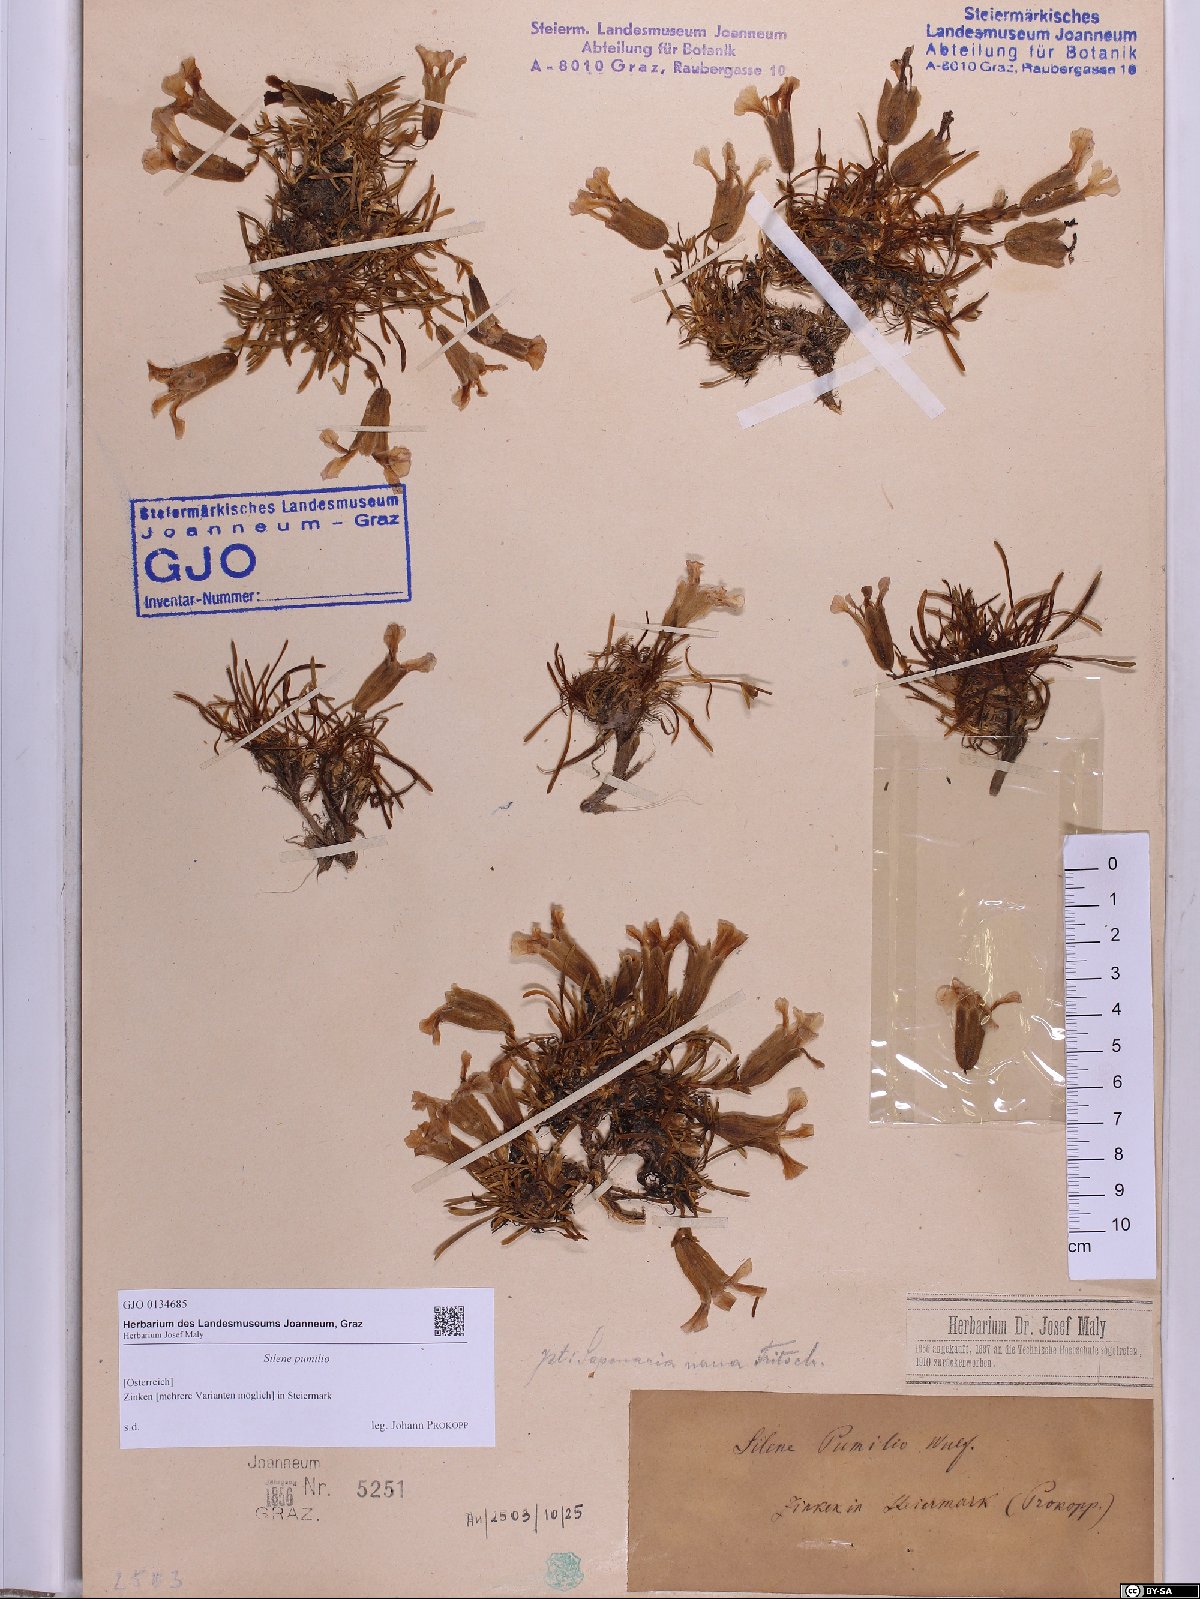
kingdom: Plantae
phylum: Tracheophyta
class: Magnoliopsida
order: Caryophyllales
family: Caryophyllaceae
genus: Saponaria
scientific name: Saponaria pumila
